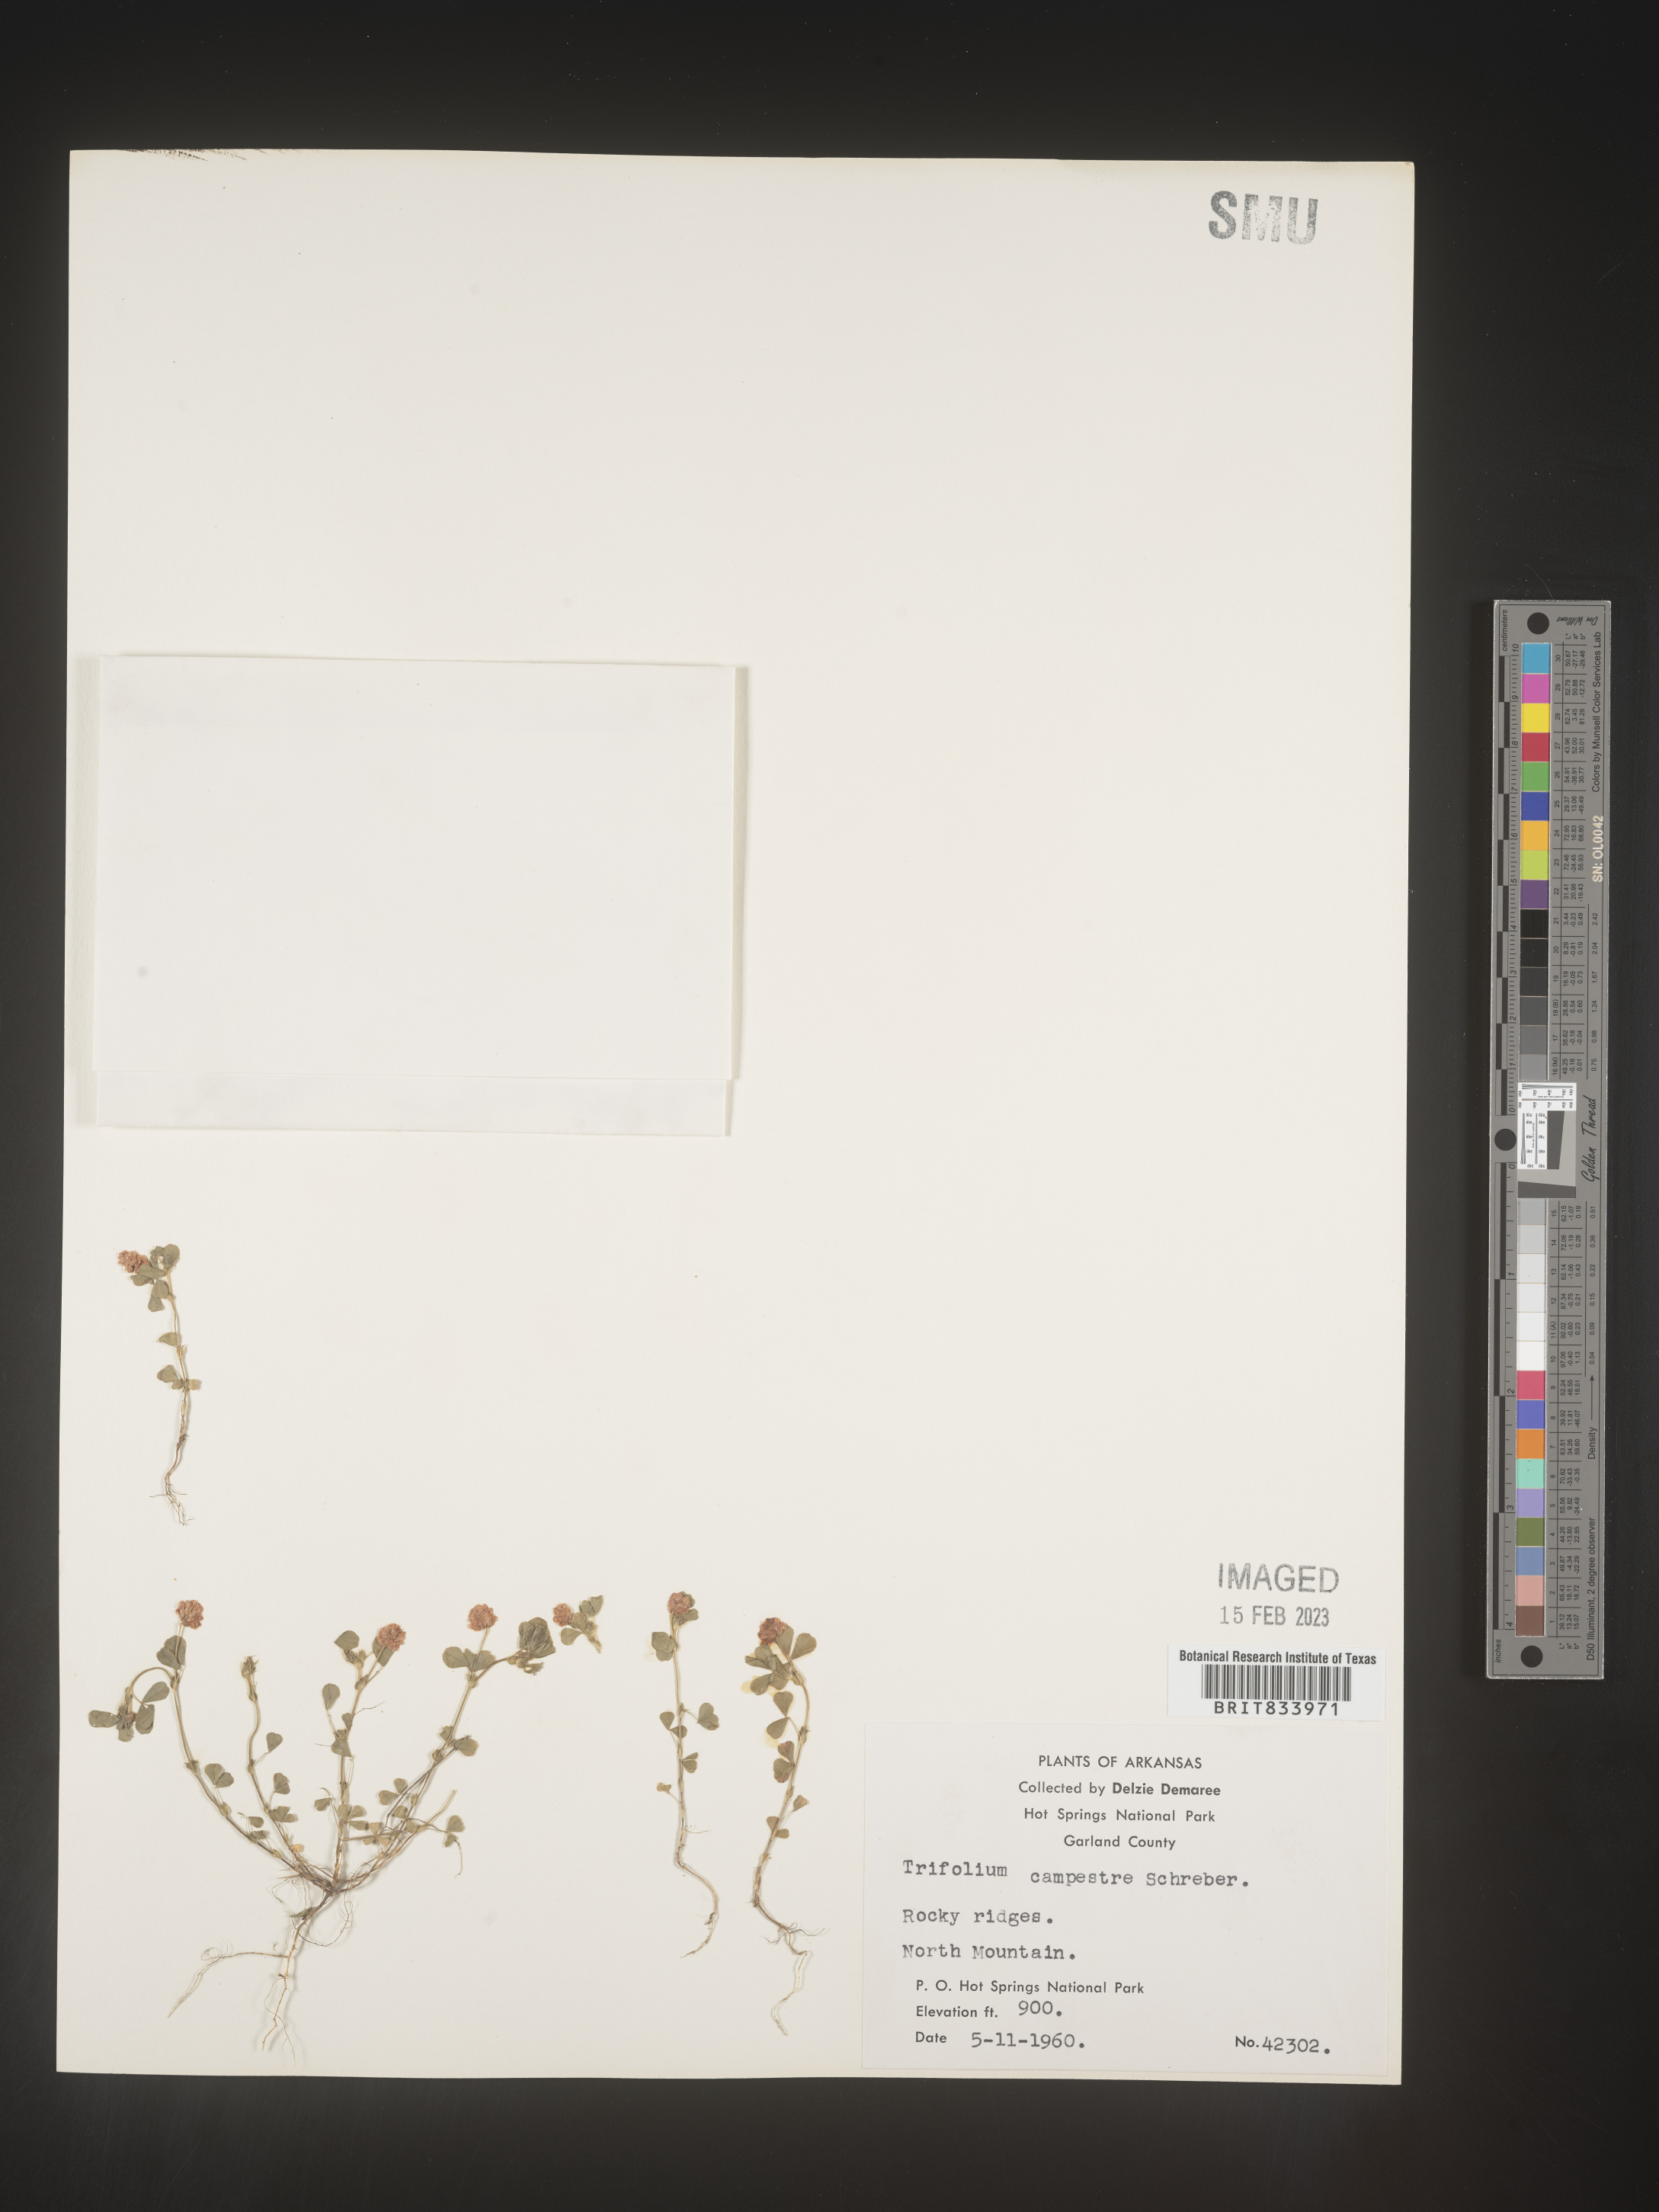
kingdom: Plantae
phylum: Tracheophyta
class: Magnoliopsida
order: Fabales
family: Fabaceae
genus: Trifolium
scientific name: Trifolium campestre
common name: Field clover
